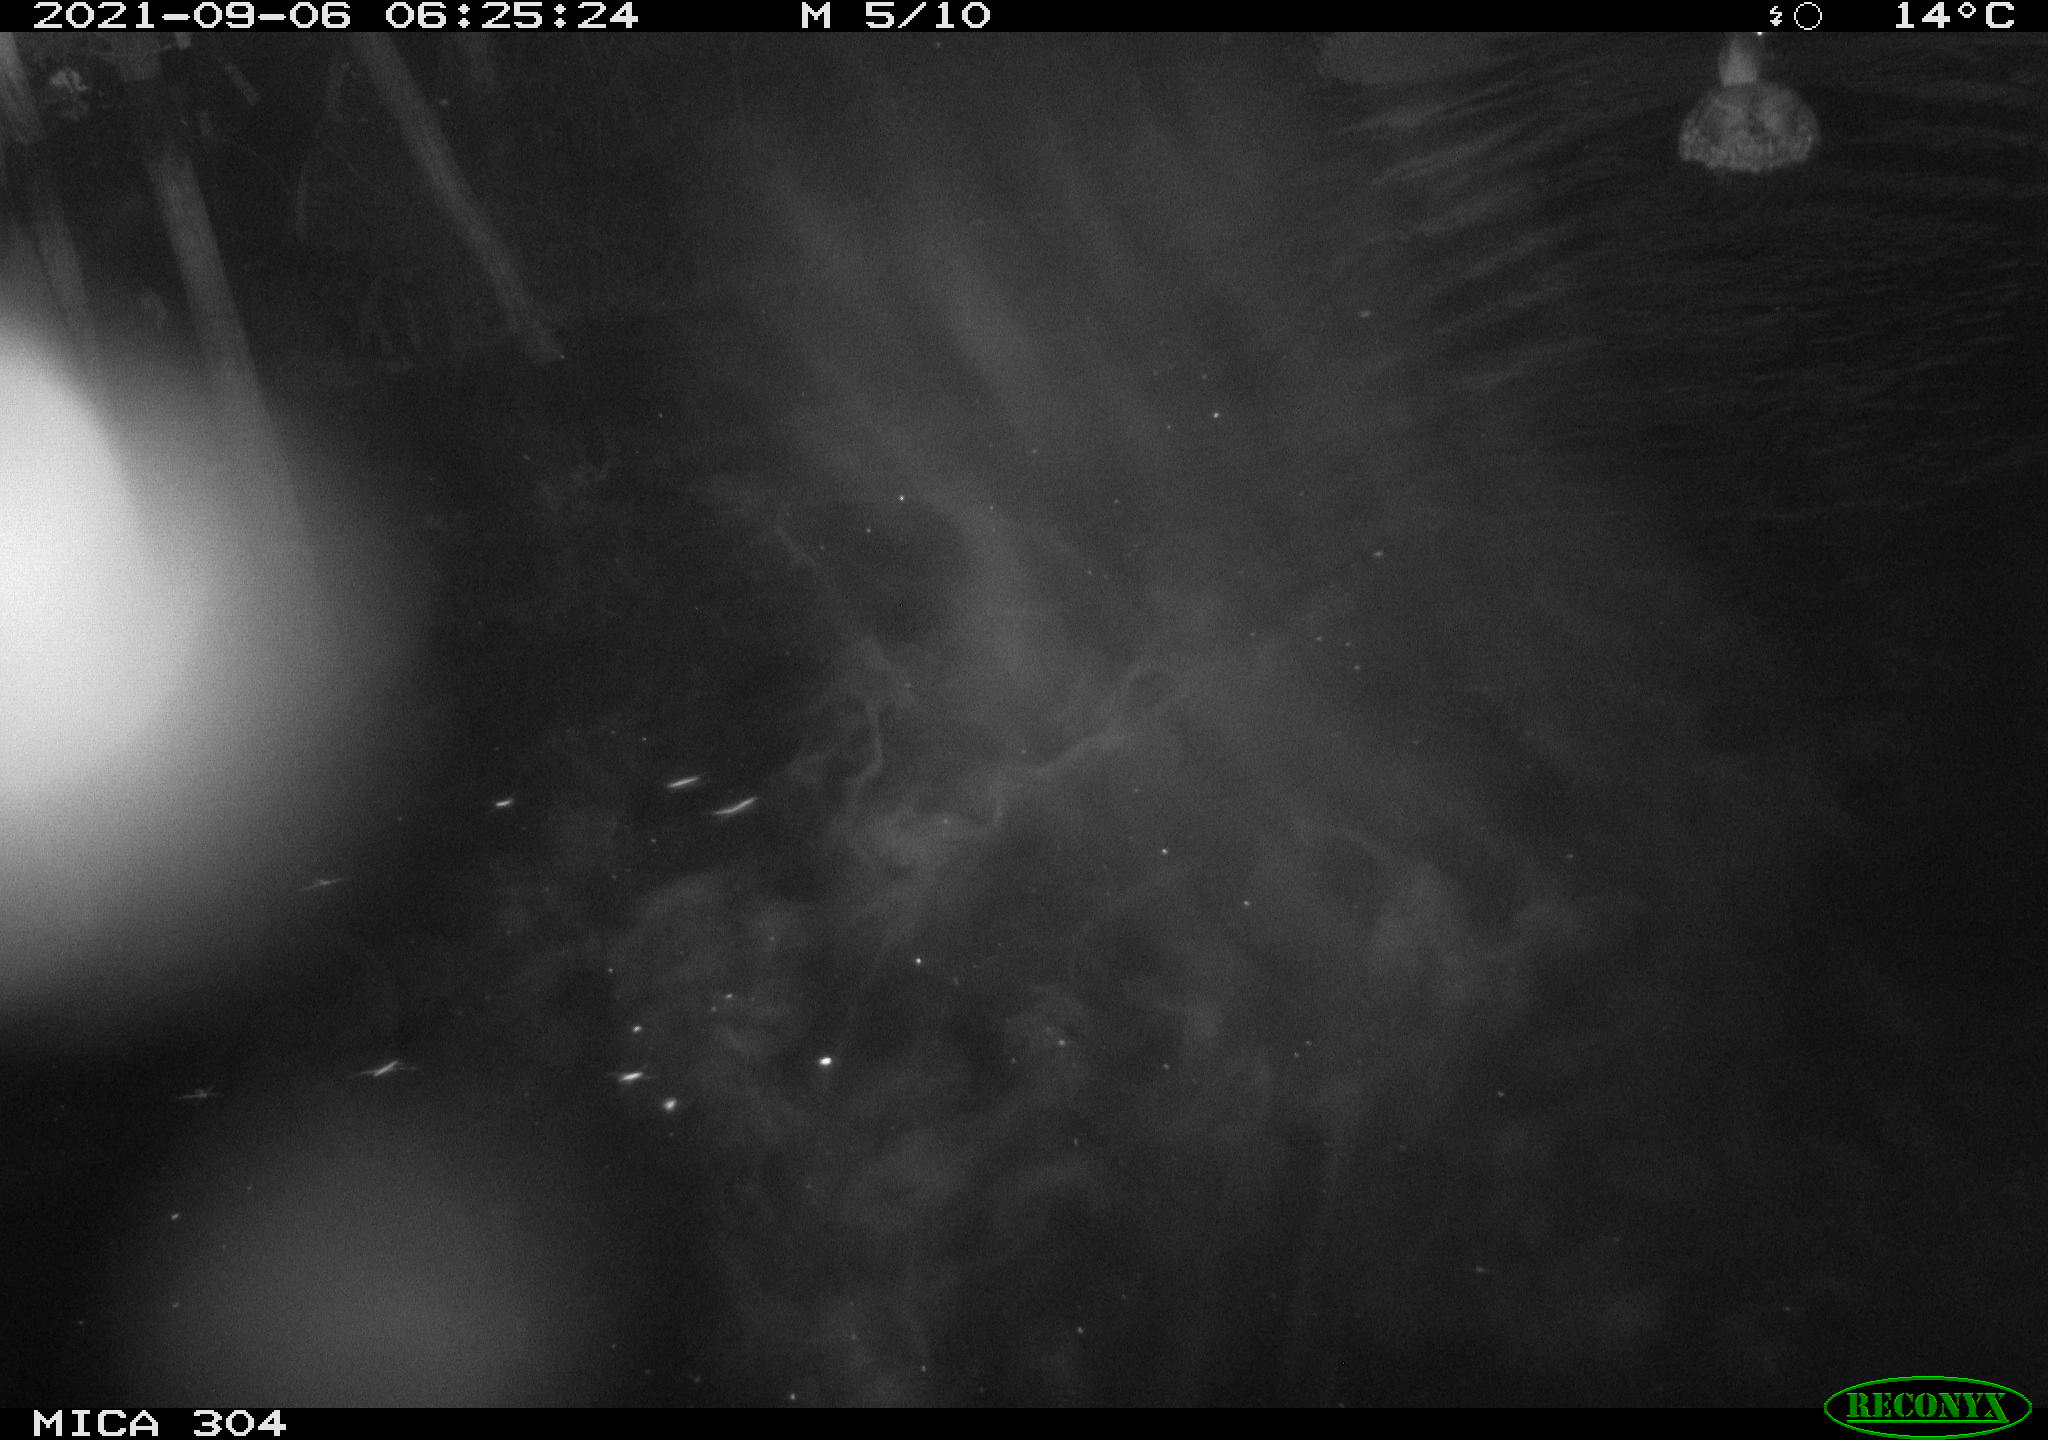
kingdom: Animalia
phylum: Chordata
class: Aves
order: Anseriformes
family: Anatidae
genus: Anas
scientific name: Anas platyrhynchos
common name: Mallard
